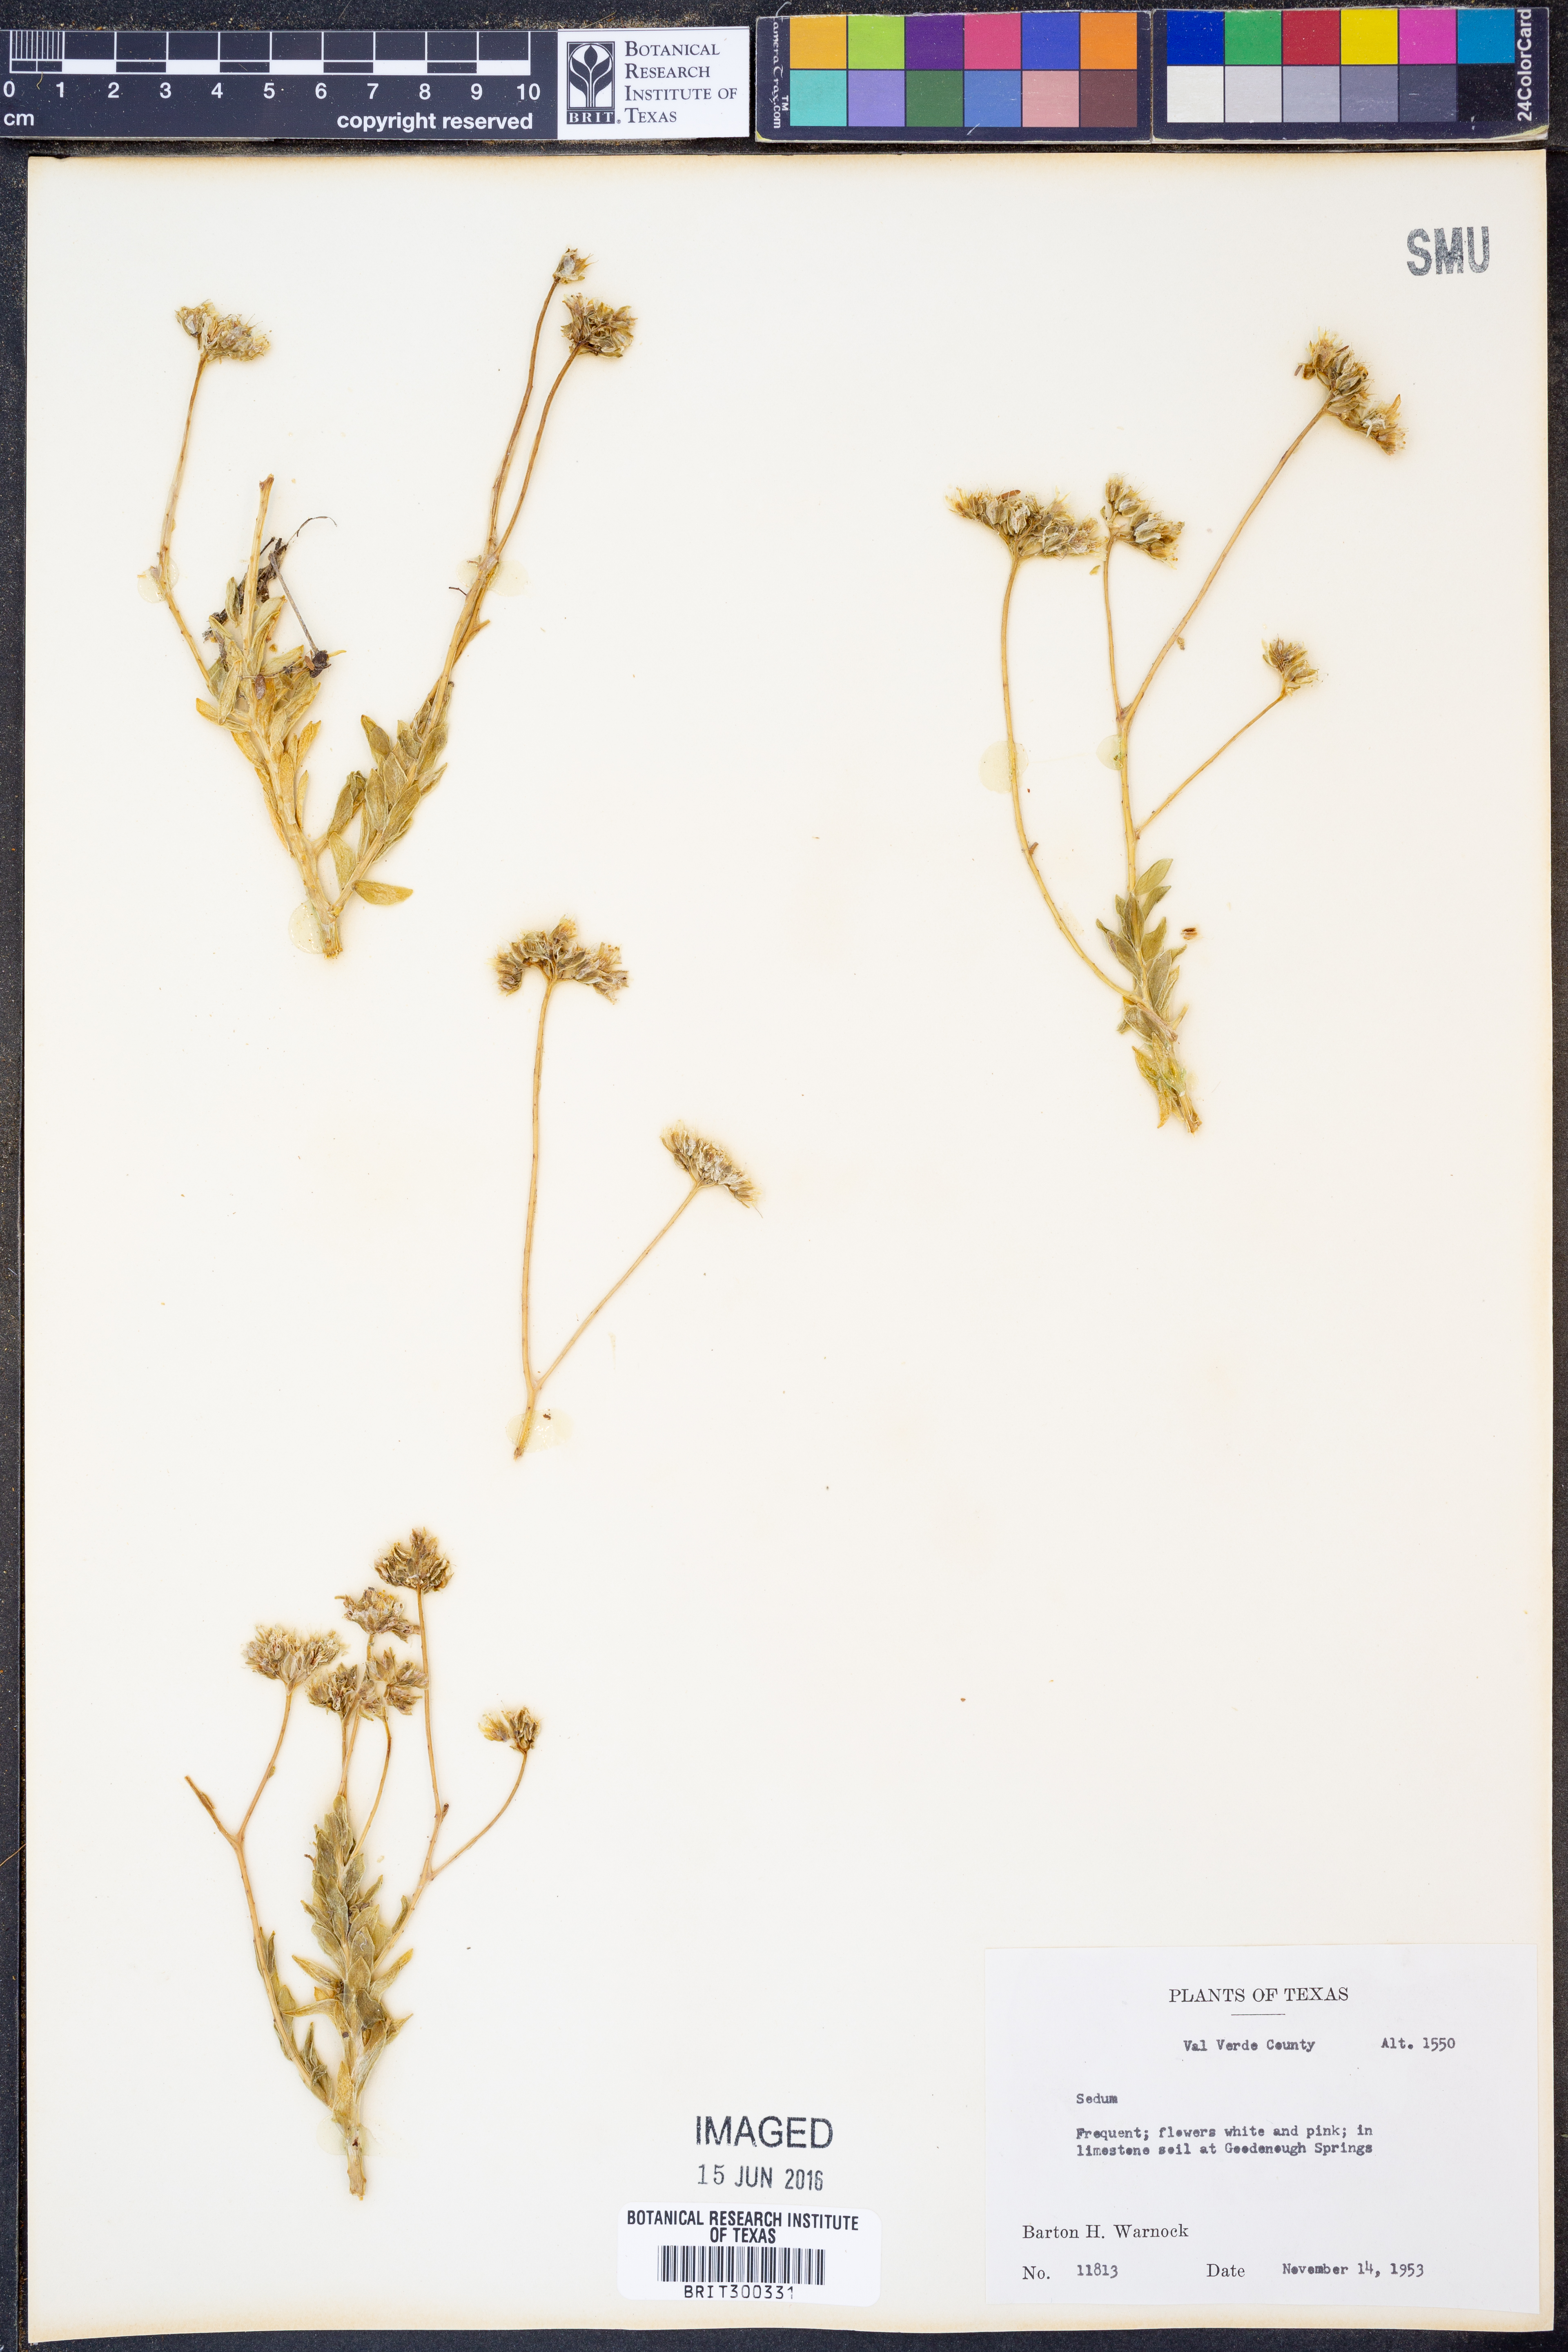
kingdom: Plantae
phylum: Tracheophyta
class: Magnoliopsida
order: Saxifragales
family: Crassulaceae
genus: Sedum
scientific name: Sedum
